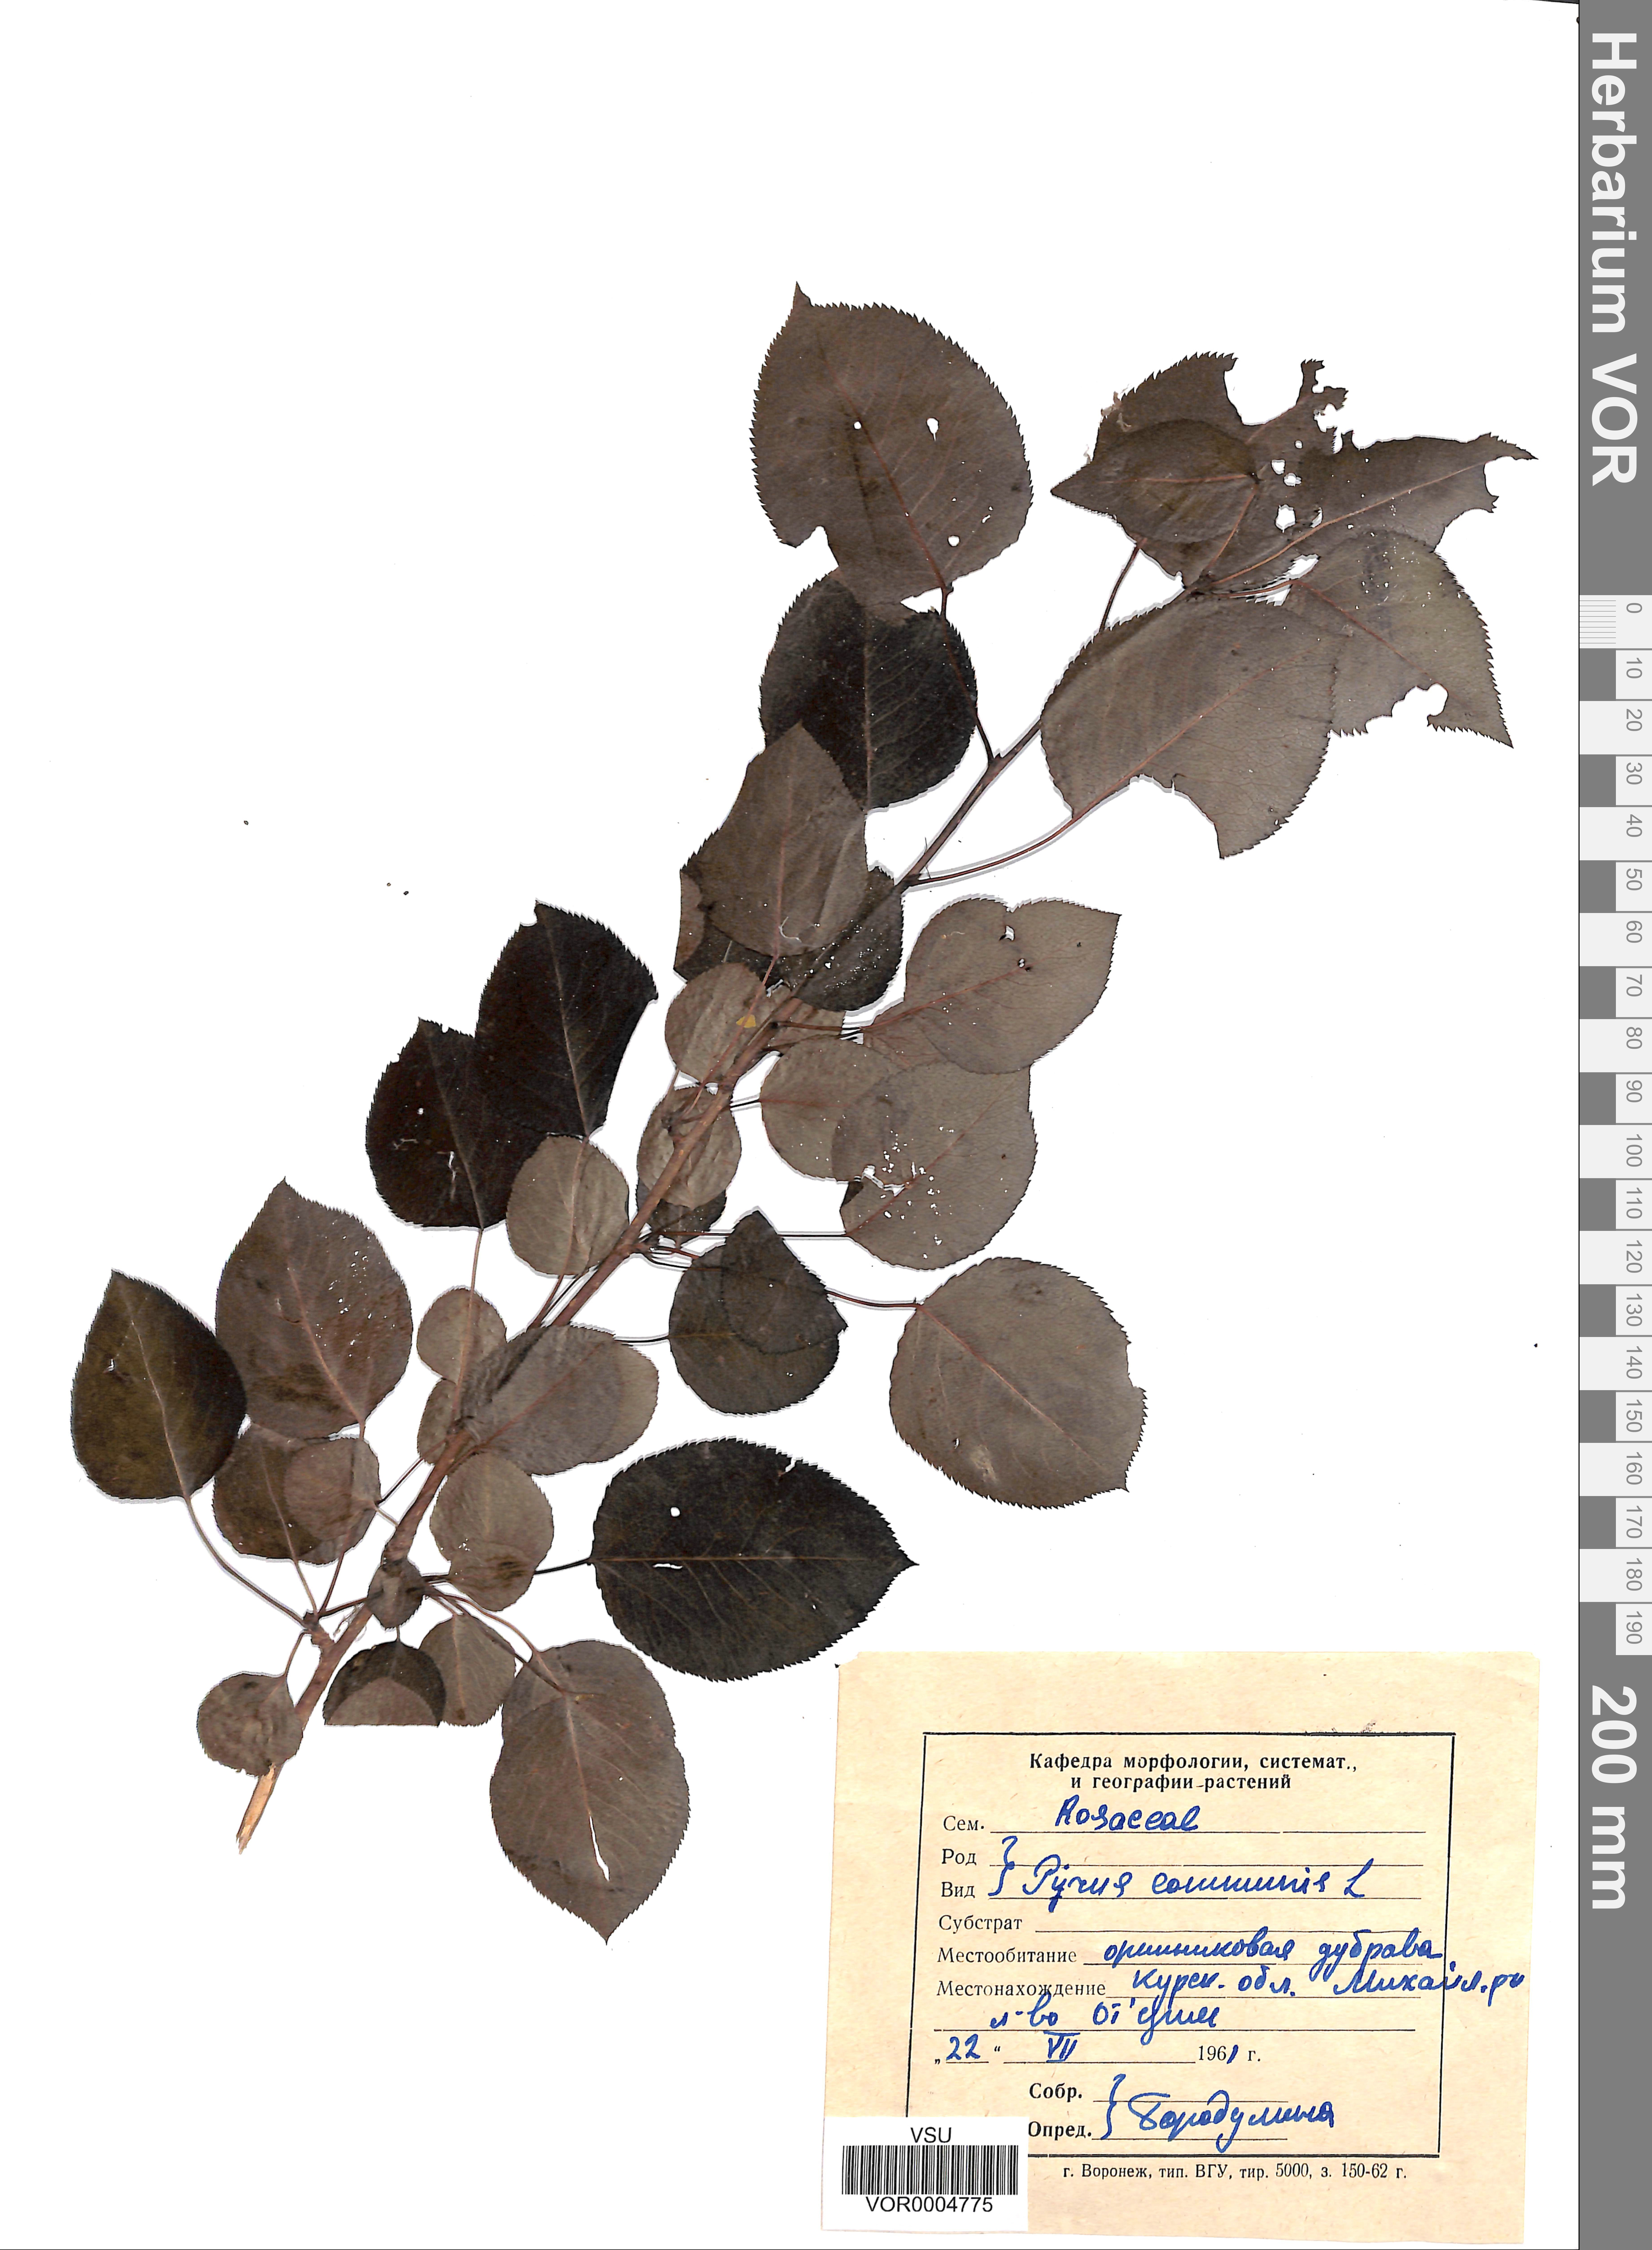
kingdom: Plantae
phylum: Tracheophyta
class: Magnoliopsida
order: Rosales
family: Rosaceae
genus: Pyrus
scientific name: Pyrus communis
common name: Pear
